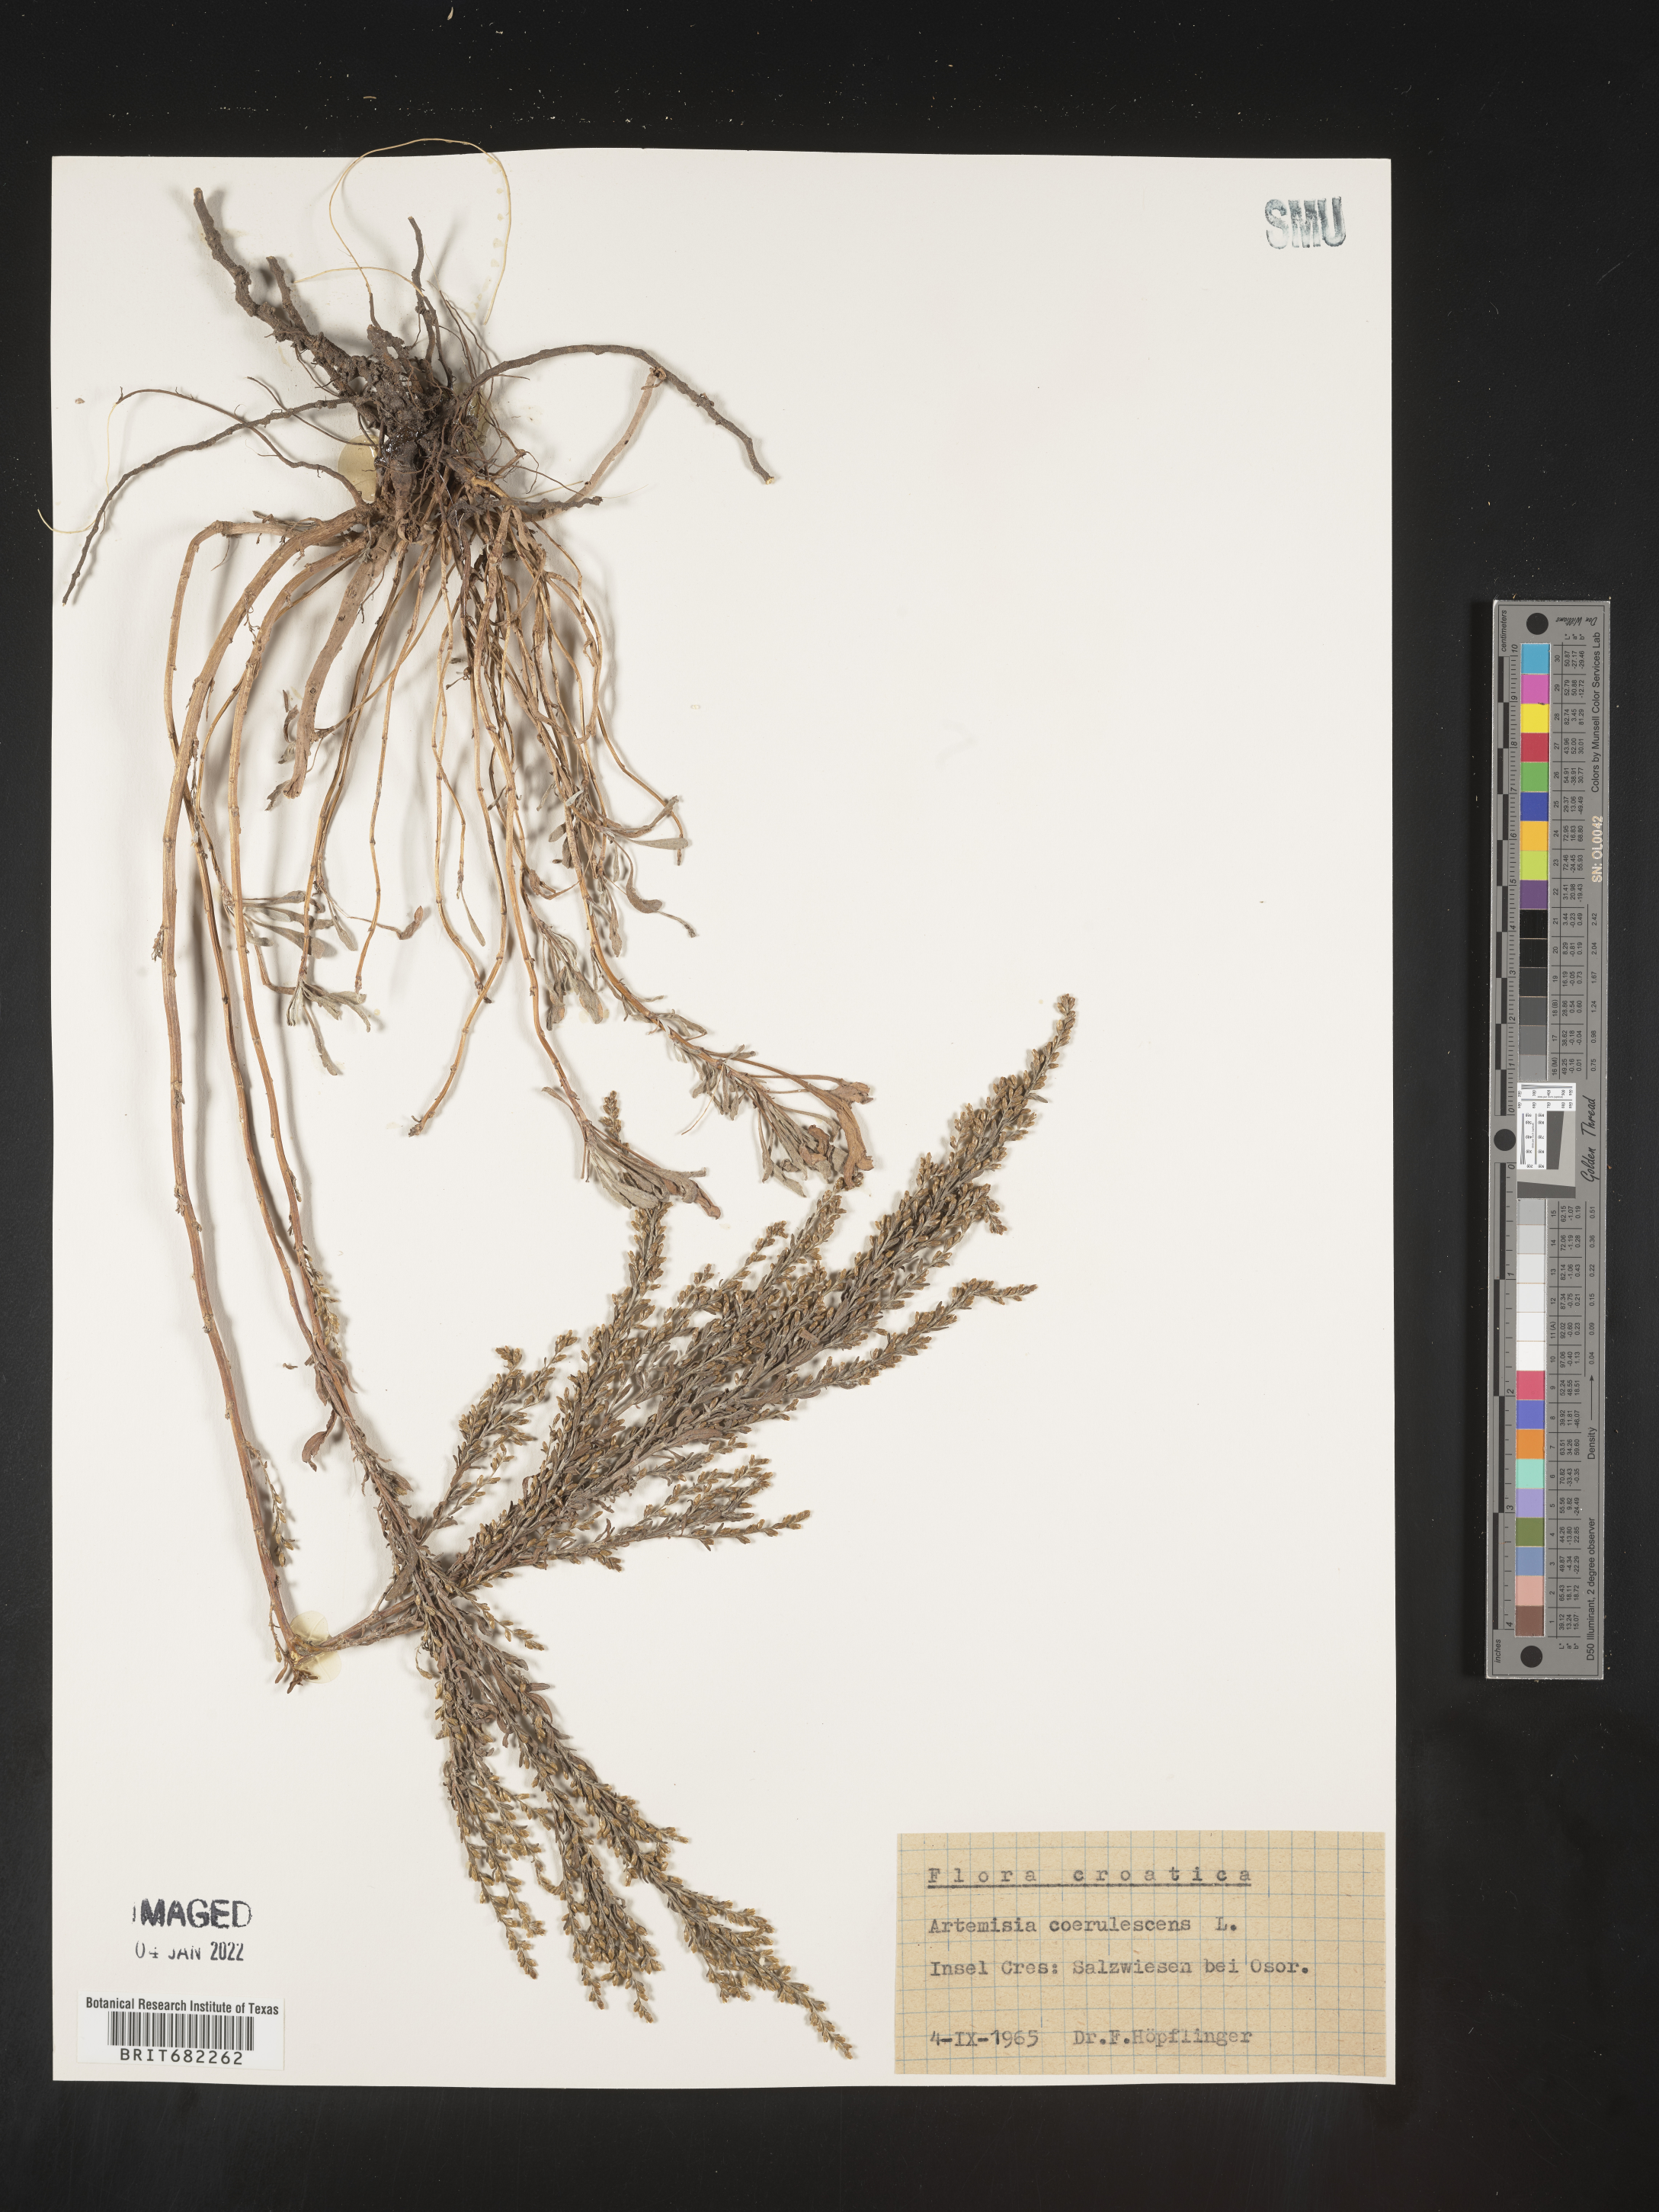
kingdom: Plantae
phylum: Tracheophyta
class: Magnoliopsida
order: Asterales
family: Asteraceae
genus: Artemisia
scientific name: Artemisia
